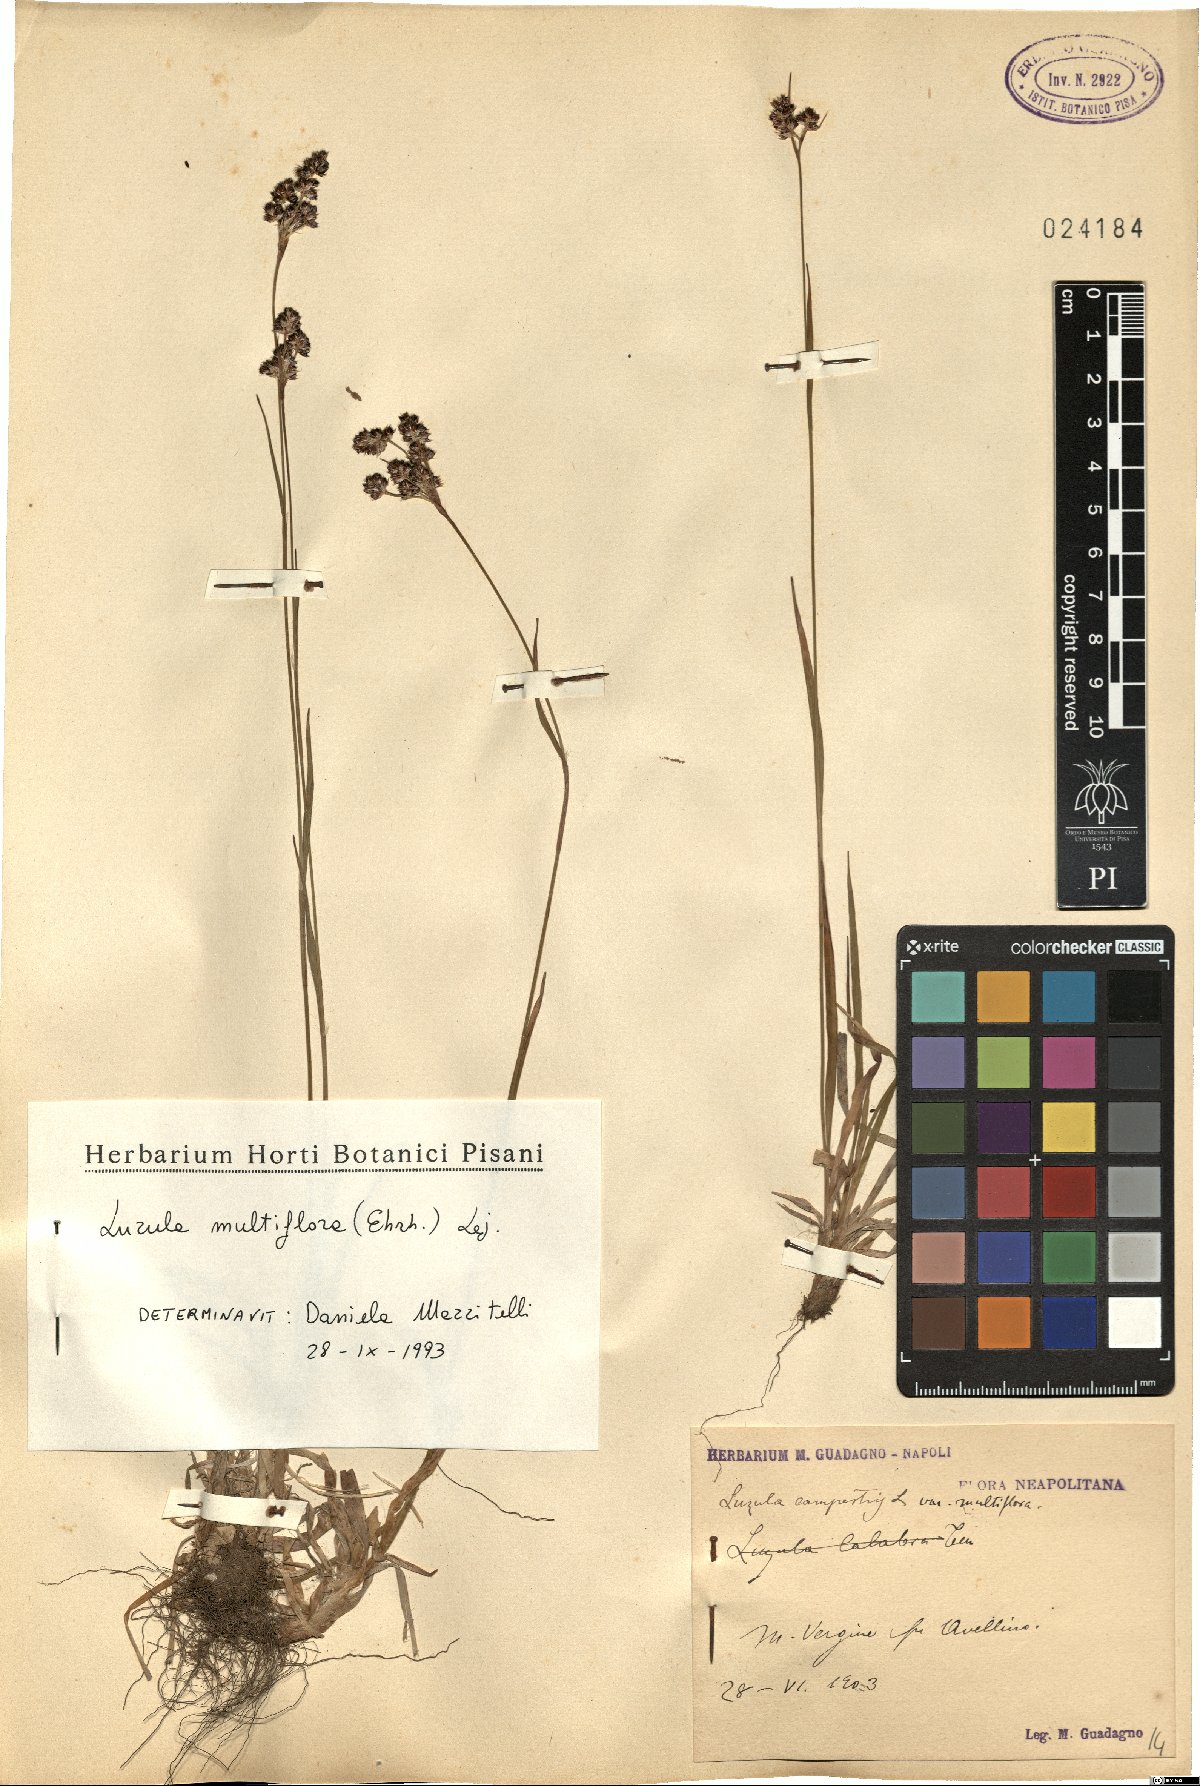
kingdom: Plantae
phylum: Tracheophyta
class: Liliopsida
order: Poales
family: Juncaceae
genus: Luzula
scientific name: Luzula multiflora
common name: Heath wood-rush
